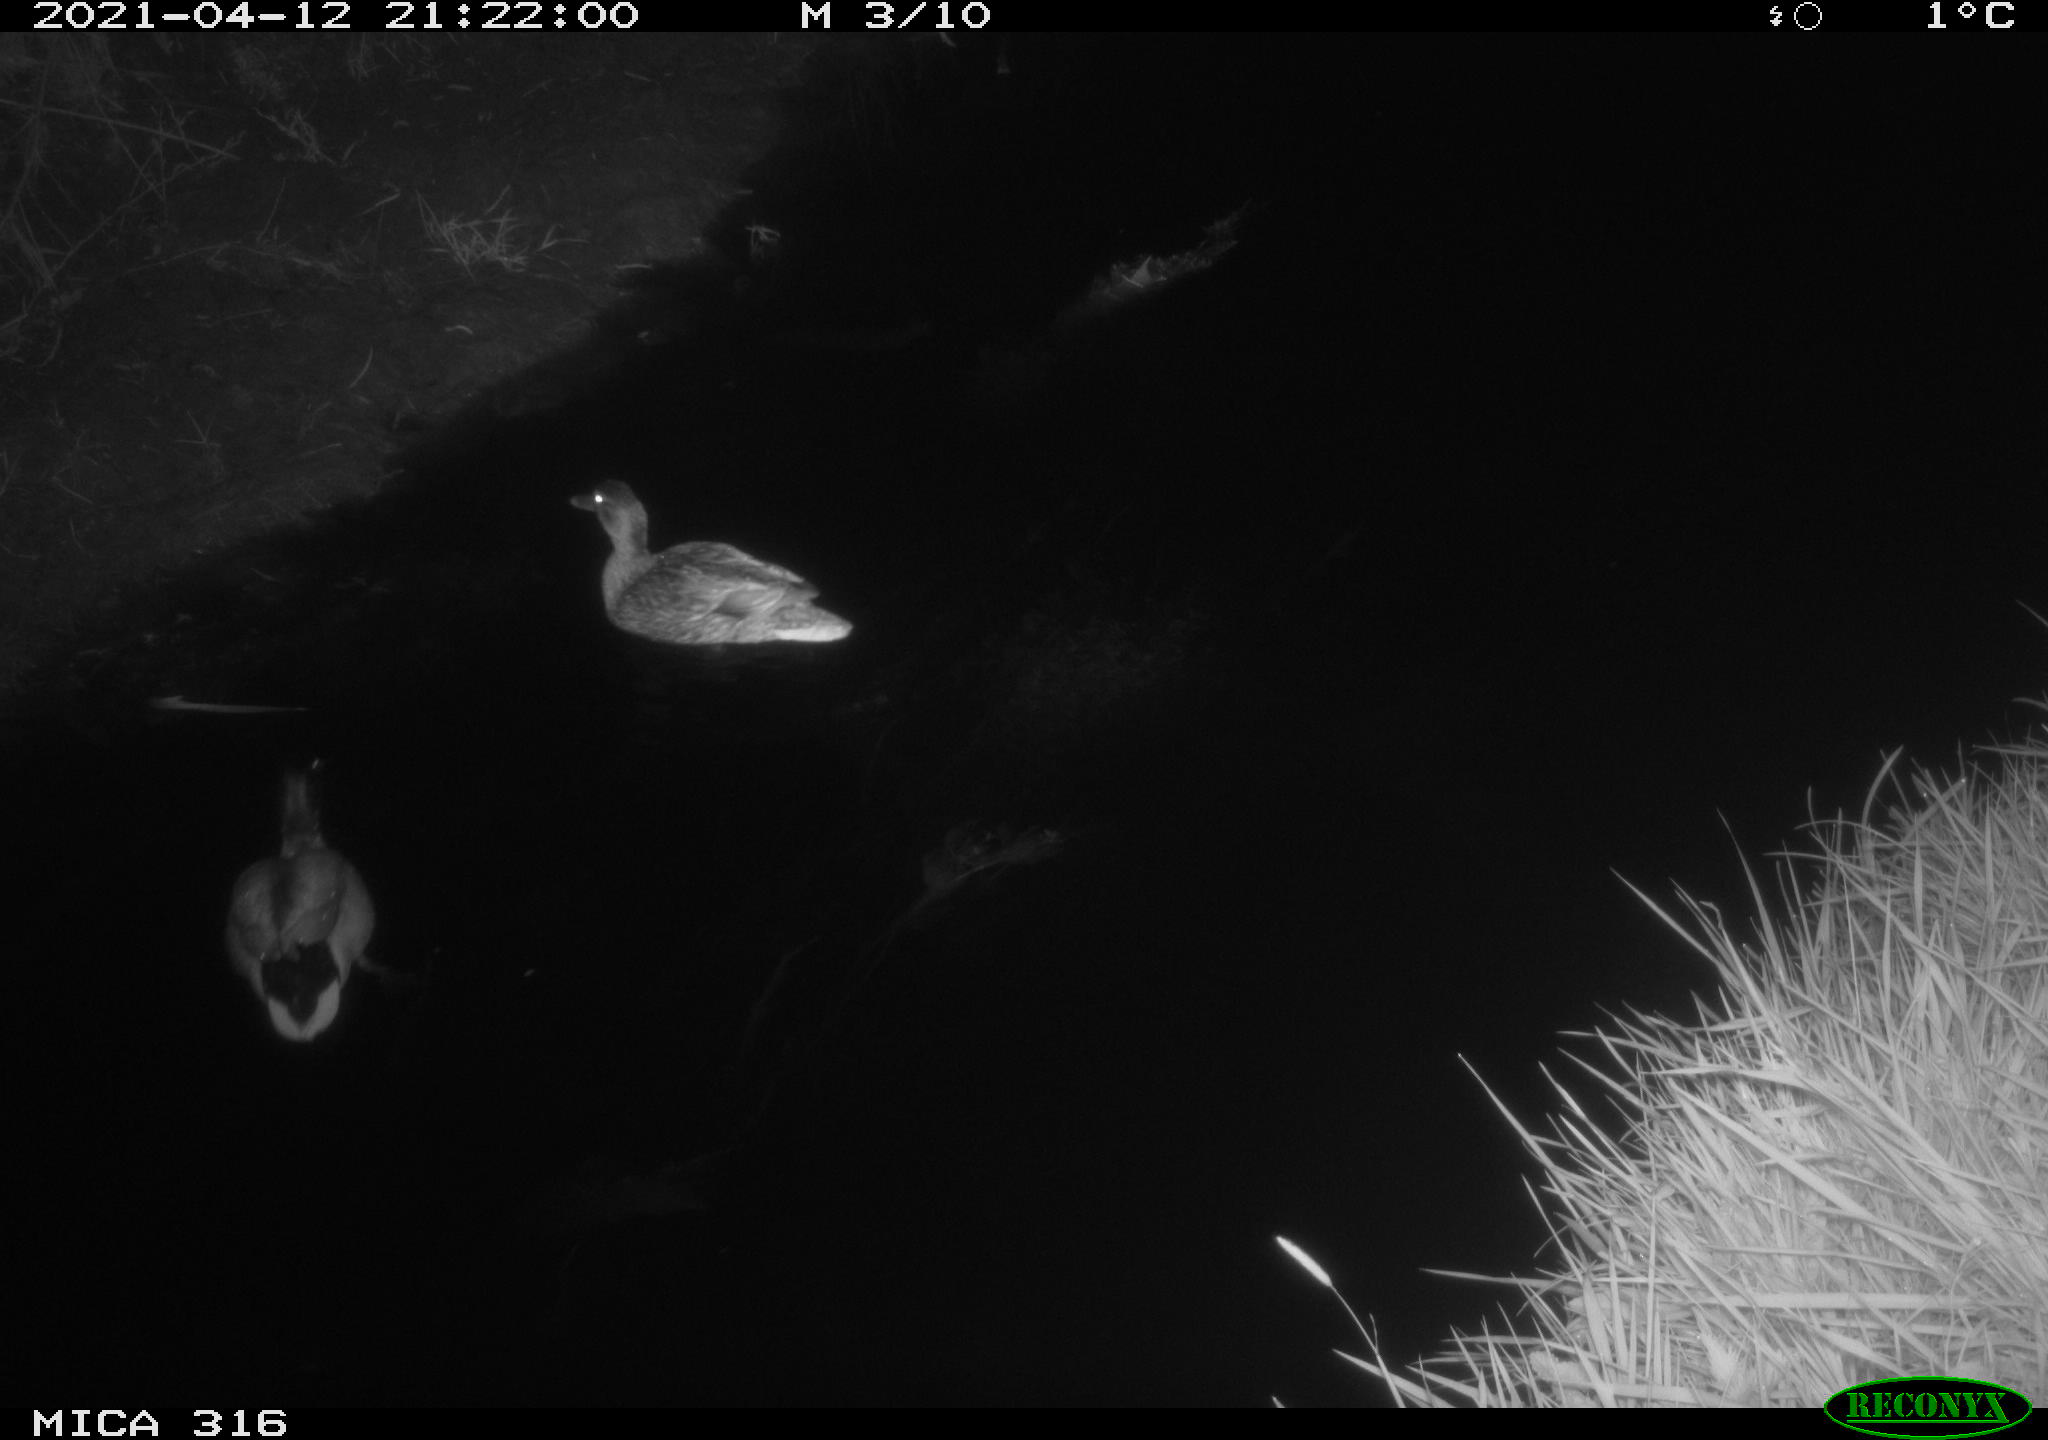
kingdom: Animalia
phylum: Chordata
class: Aves
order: Anseriformes
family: Anatidae
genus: Anas
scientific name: Anas platyrhynchos
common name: Mallard
